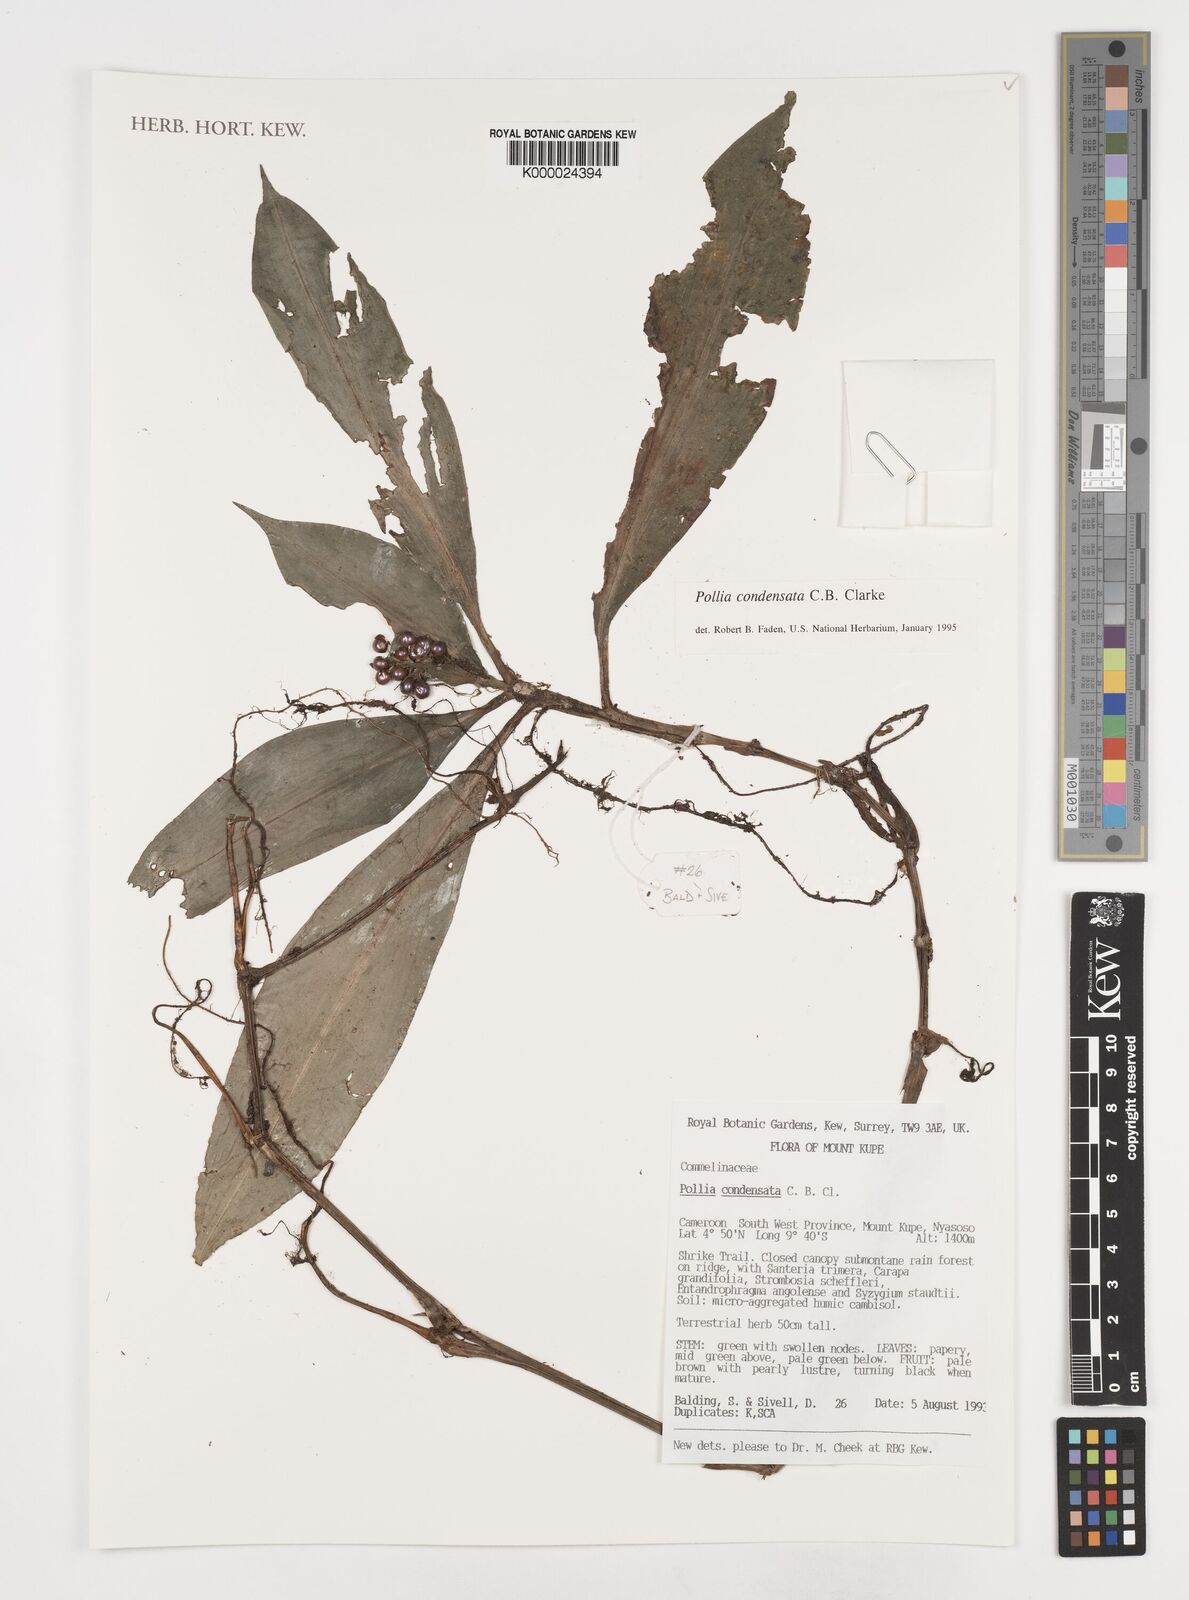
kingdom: Plantae
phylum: Tracheophyta
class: Liliopsida
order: Commelinales
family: Commelinaceae
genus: Pollia
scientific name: Pollia condensata
